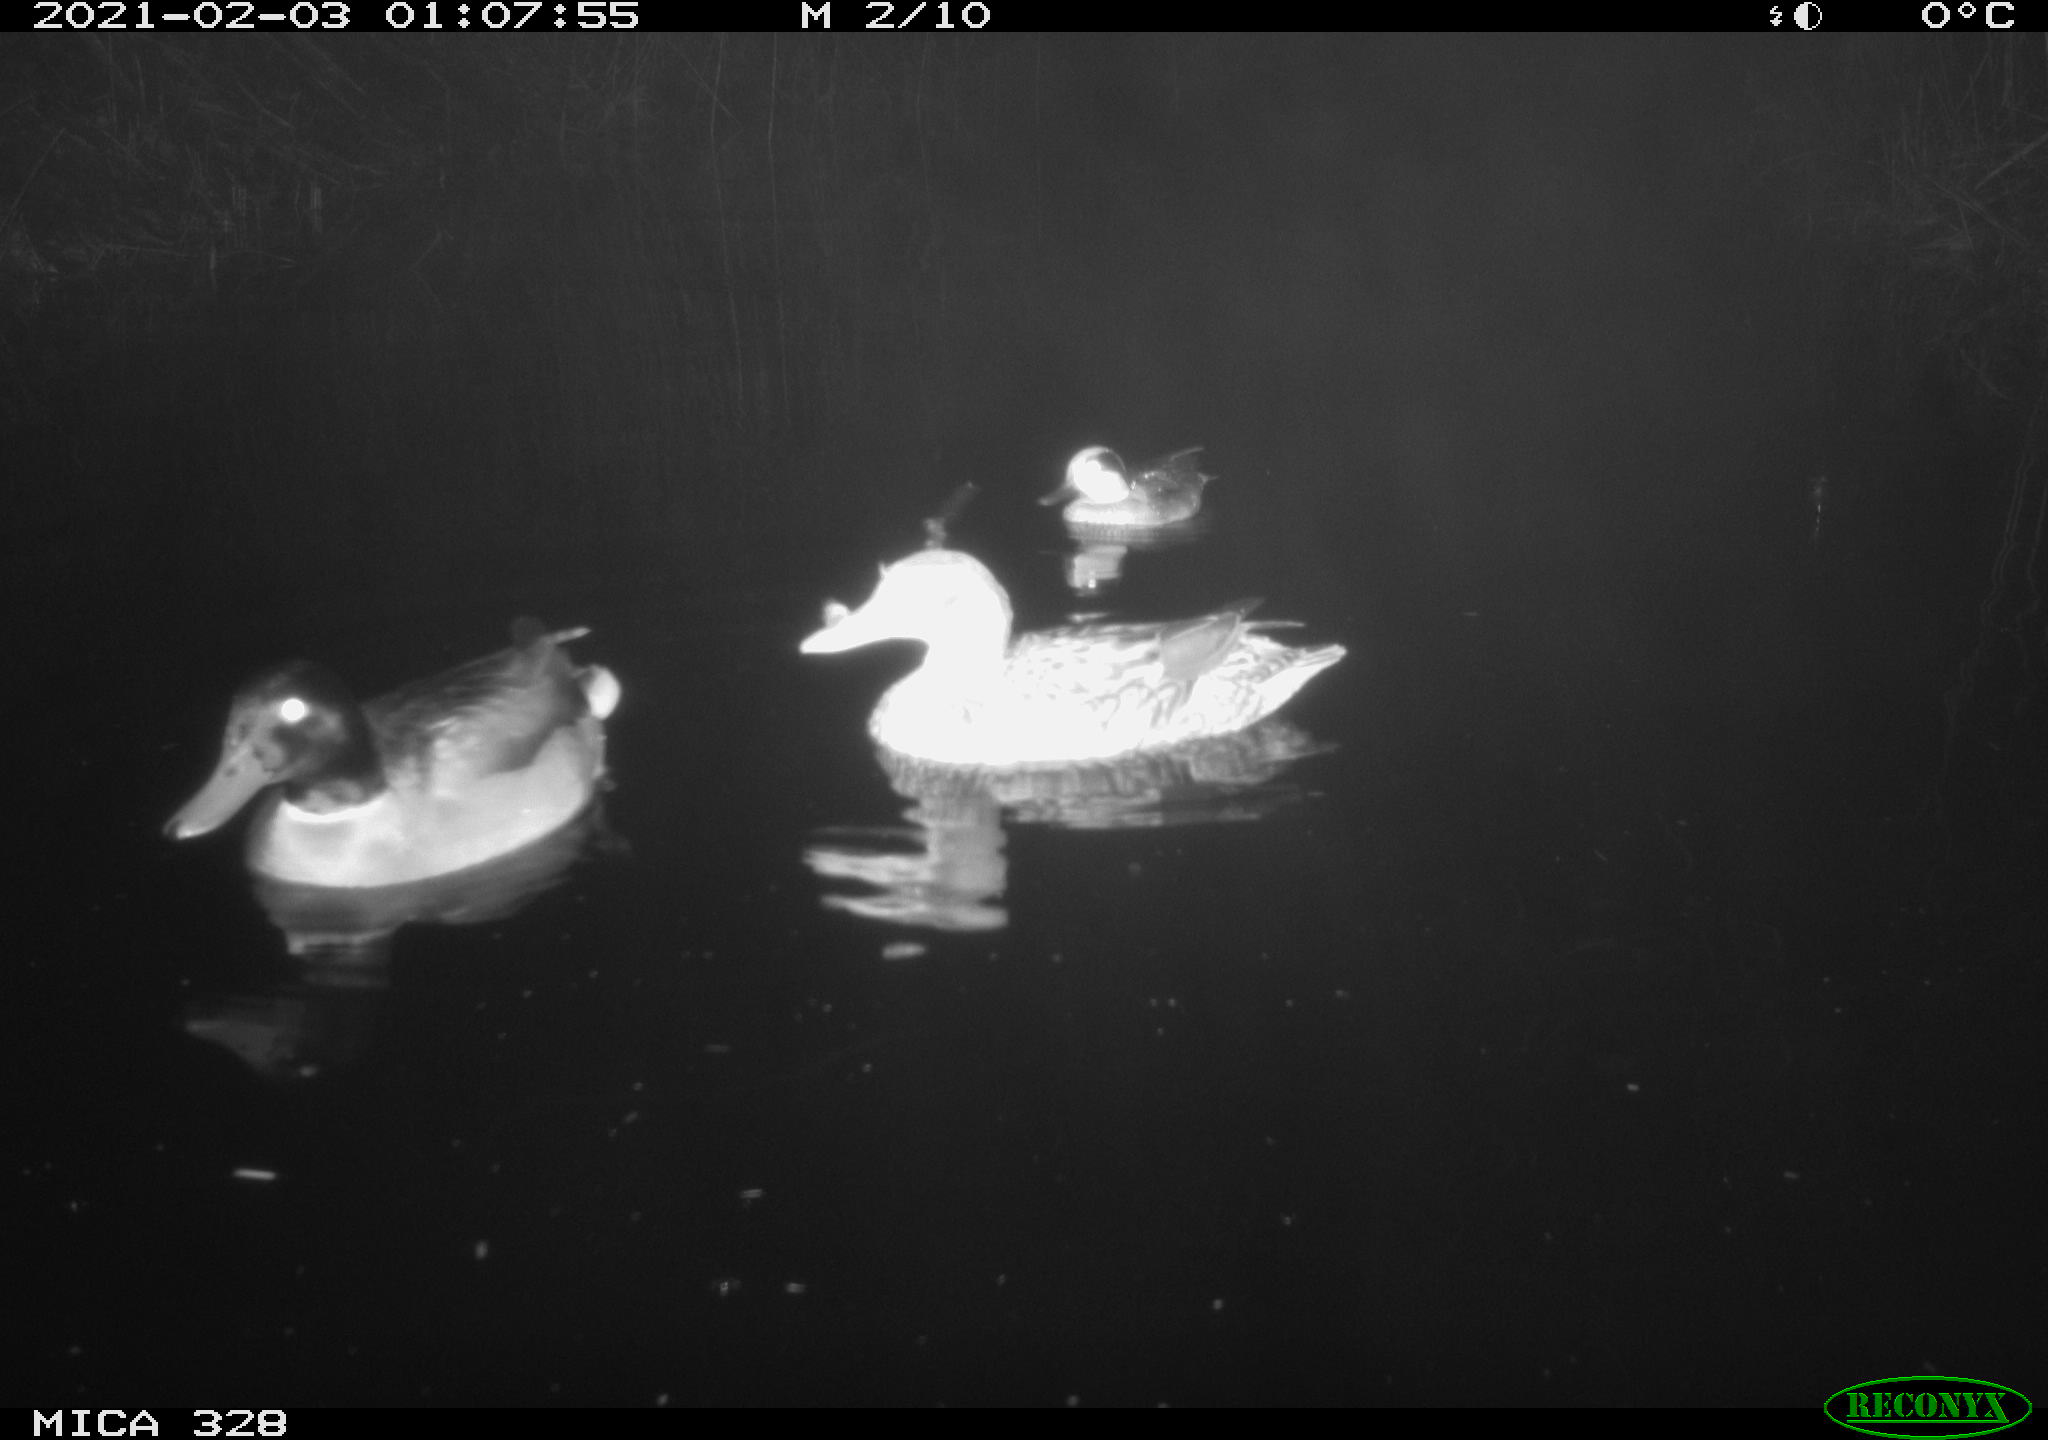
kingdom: Animalia
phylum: Chordata
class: Aves
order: Anseriformes
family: Anatidae
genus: Anas
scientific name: Anas platyrhynchos
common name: Mallard
